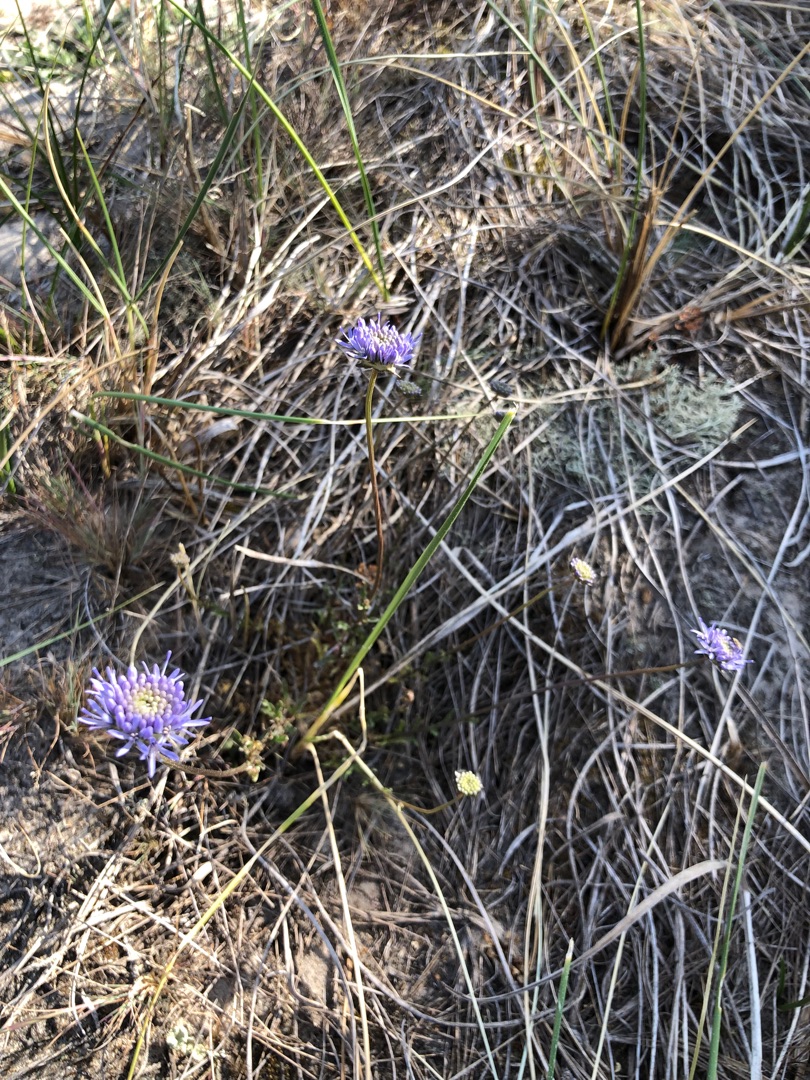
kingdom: Plantae
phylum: Tracheophyta
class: Magnoliopsida
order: Asterales
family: Campanulaceae
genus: Jasione
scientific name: Jasione montana
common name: Blåmunke
